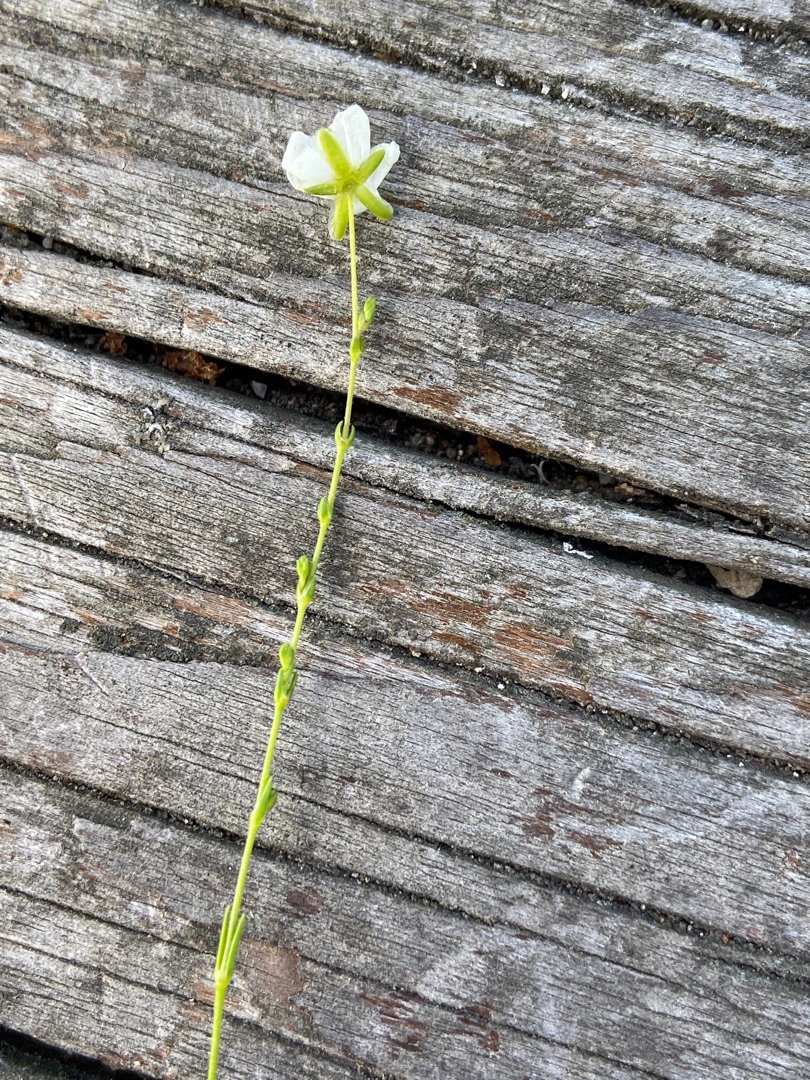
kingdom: Plantae
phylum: Tracheophyta
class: Magnoliopsida
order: Caryophyllales
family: Caryophyllaceae
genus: Sagina
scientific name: Sagina nodosa
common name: Knude-firling
